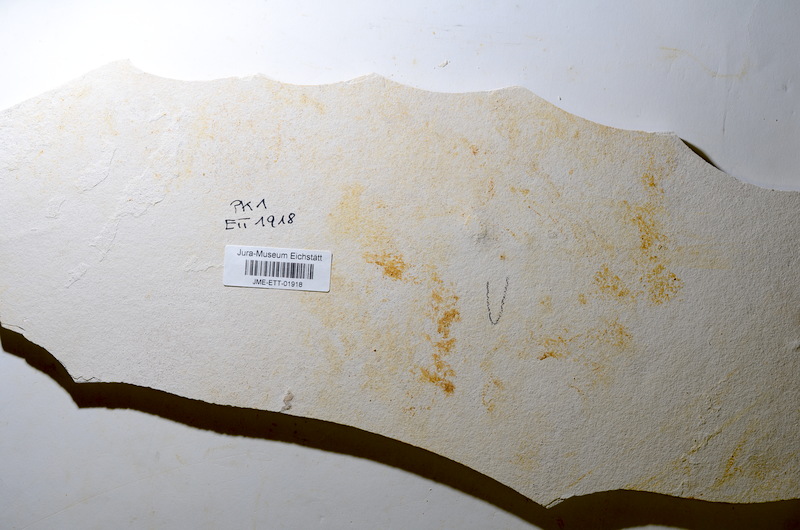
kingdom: Animalia
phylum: Chordata
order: Salmoniformes
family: Orthogonikleithridae
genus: Orthogonikleithrus
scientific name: Orthogonikleithrus hoelli
